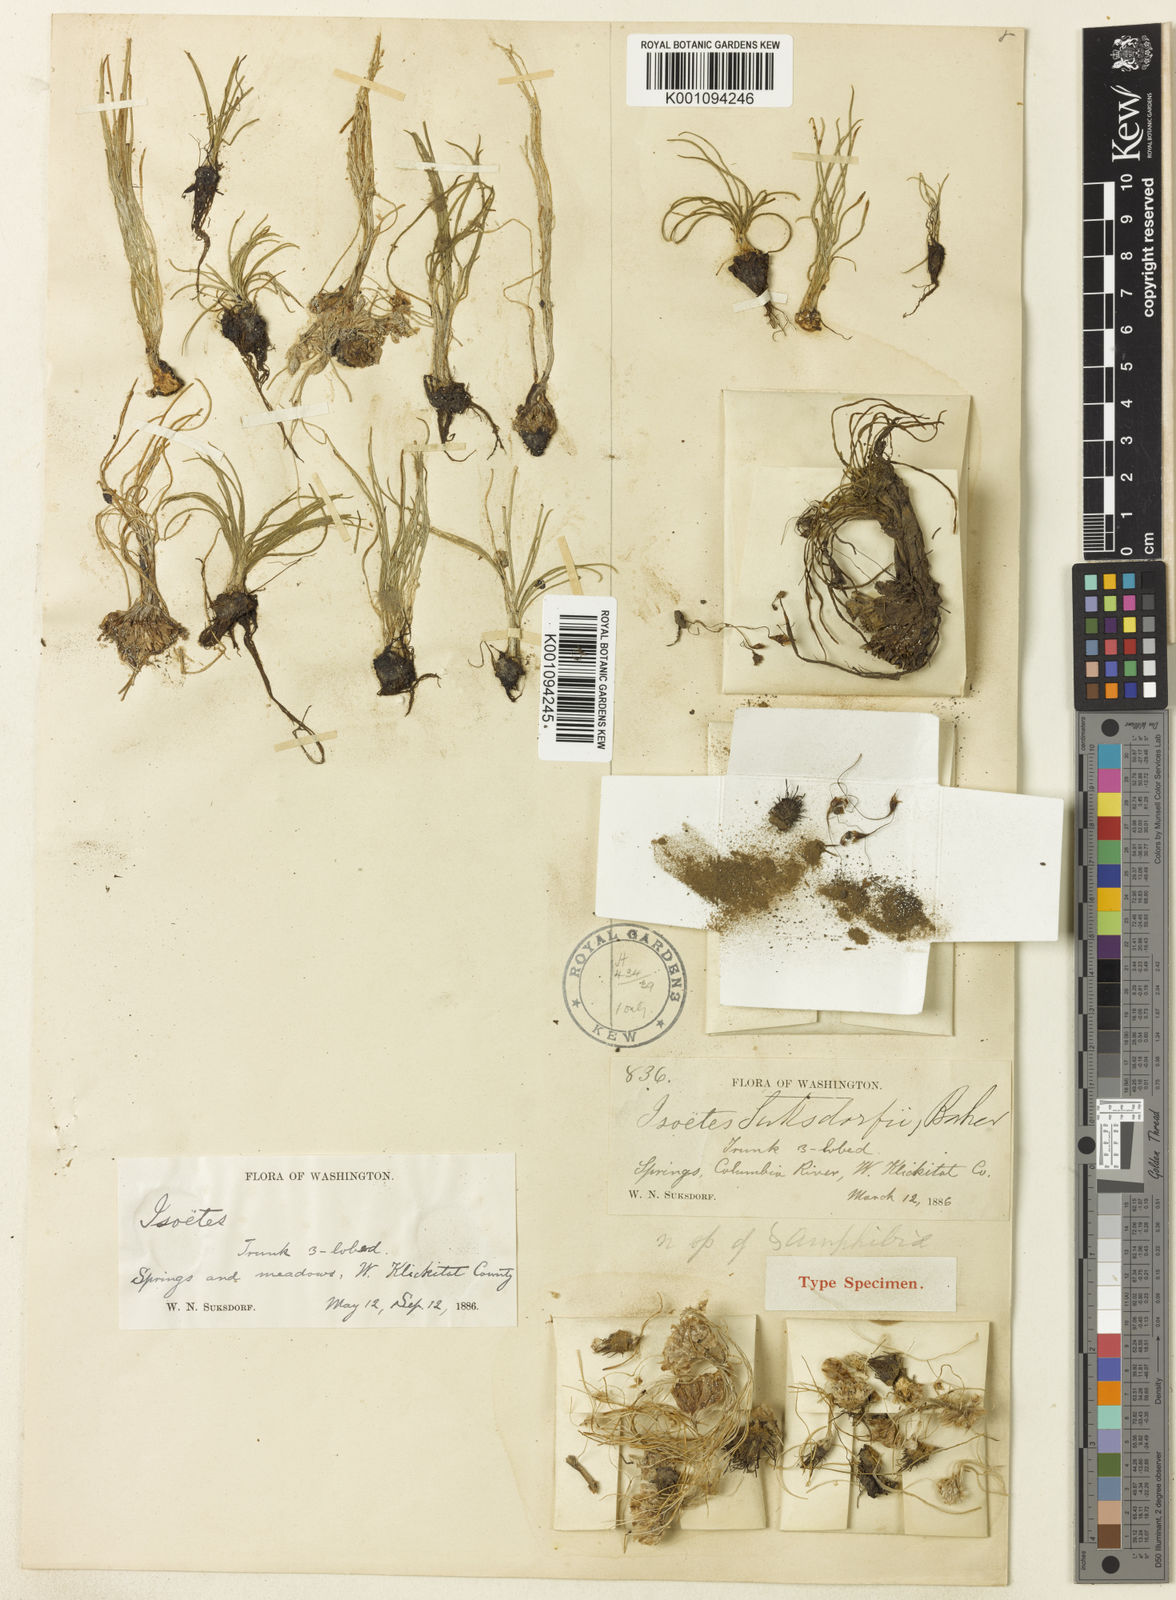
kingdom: Plantae
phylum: Tracheophyta
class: Lycopodiopsida
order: Isoetales
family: Isoetaceae
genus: Isoetes
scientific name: Isoetes
